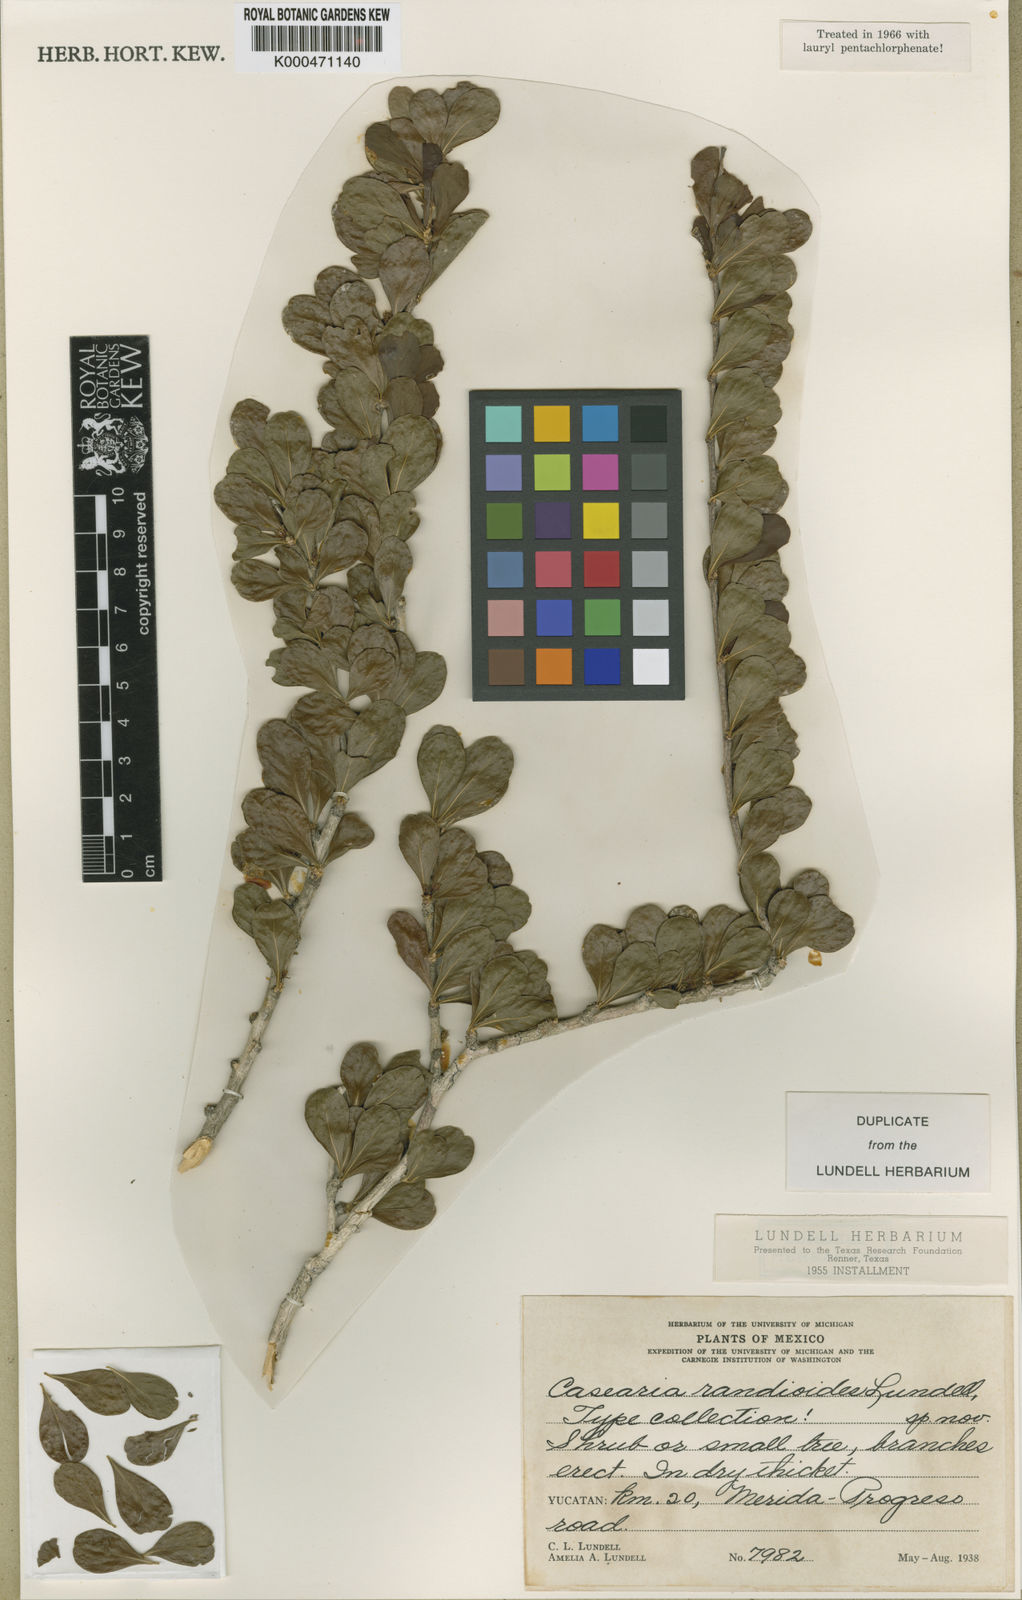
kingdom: Plantae
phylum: Tracheophyta
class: Magnoliopsida
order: Malpighiales
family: Salicaceae
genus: Casearia
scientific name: Casearia emarginata
